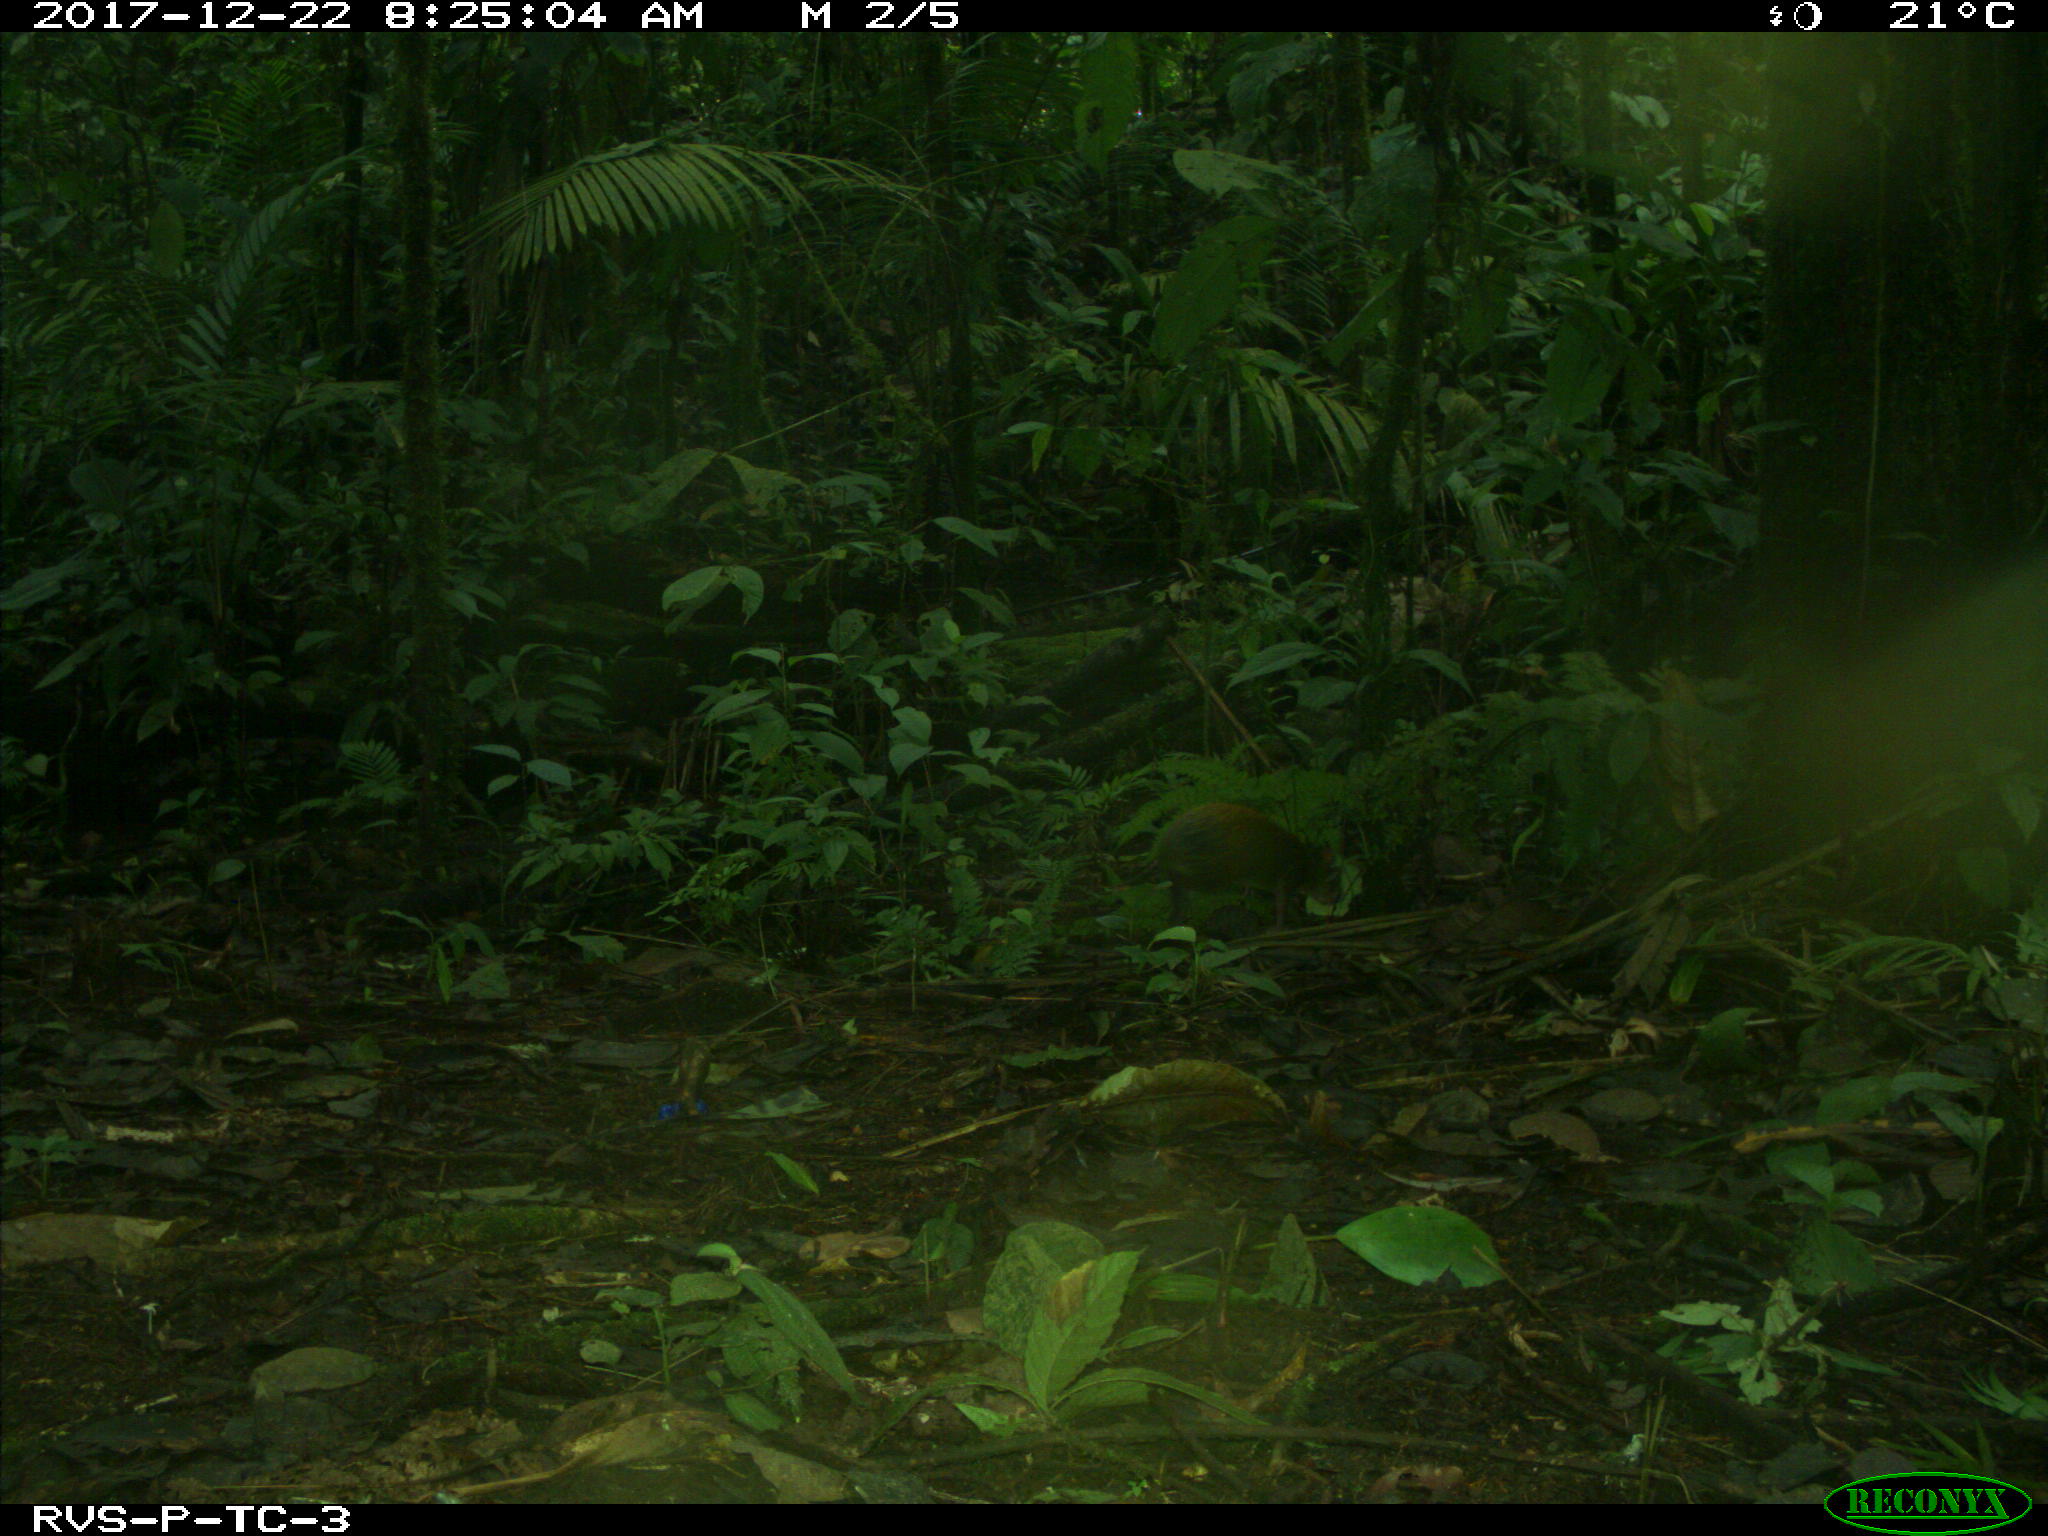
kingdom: Animalia
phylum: Chordata
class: Mammalia
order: Rodentia
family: Dasyproctidae
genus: Dasyprocta
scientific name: Dasyprocta punctata
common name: Central american agouti
